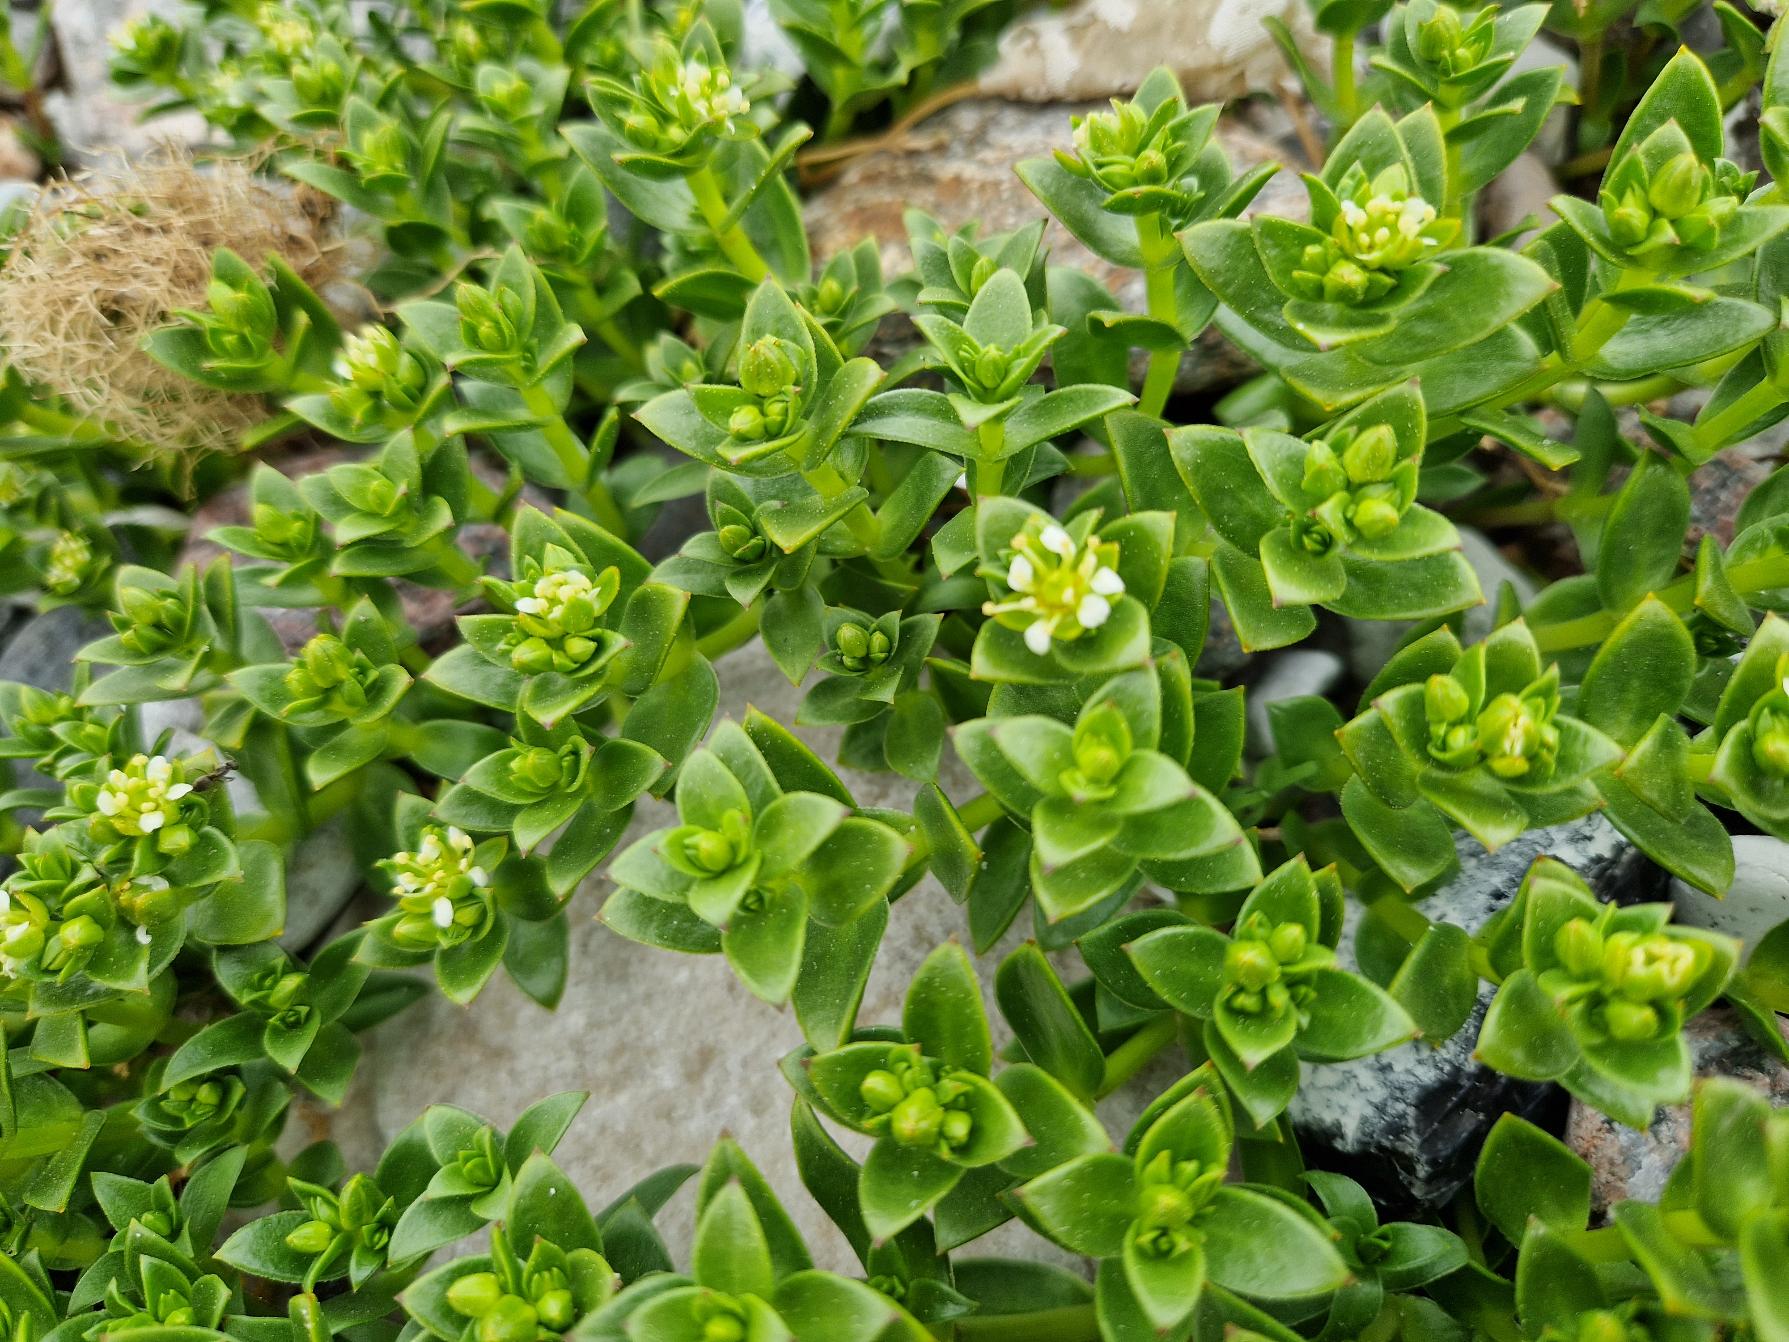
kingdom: Plantae
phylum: Tracheophyta
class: Magnoliopsida
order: Caryophyllales
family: Caryophyllaceae
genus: Honckenya
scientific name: Honckenya peploides
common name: Strandarve
